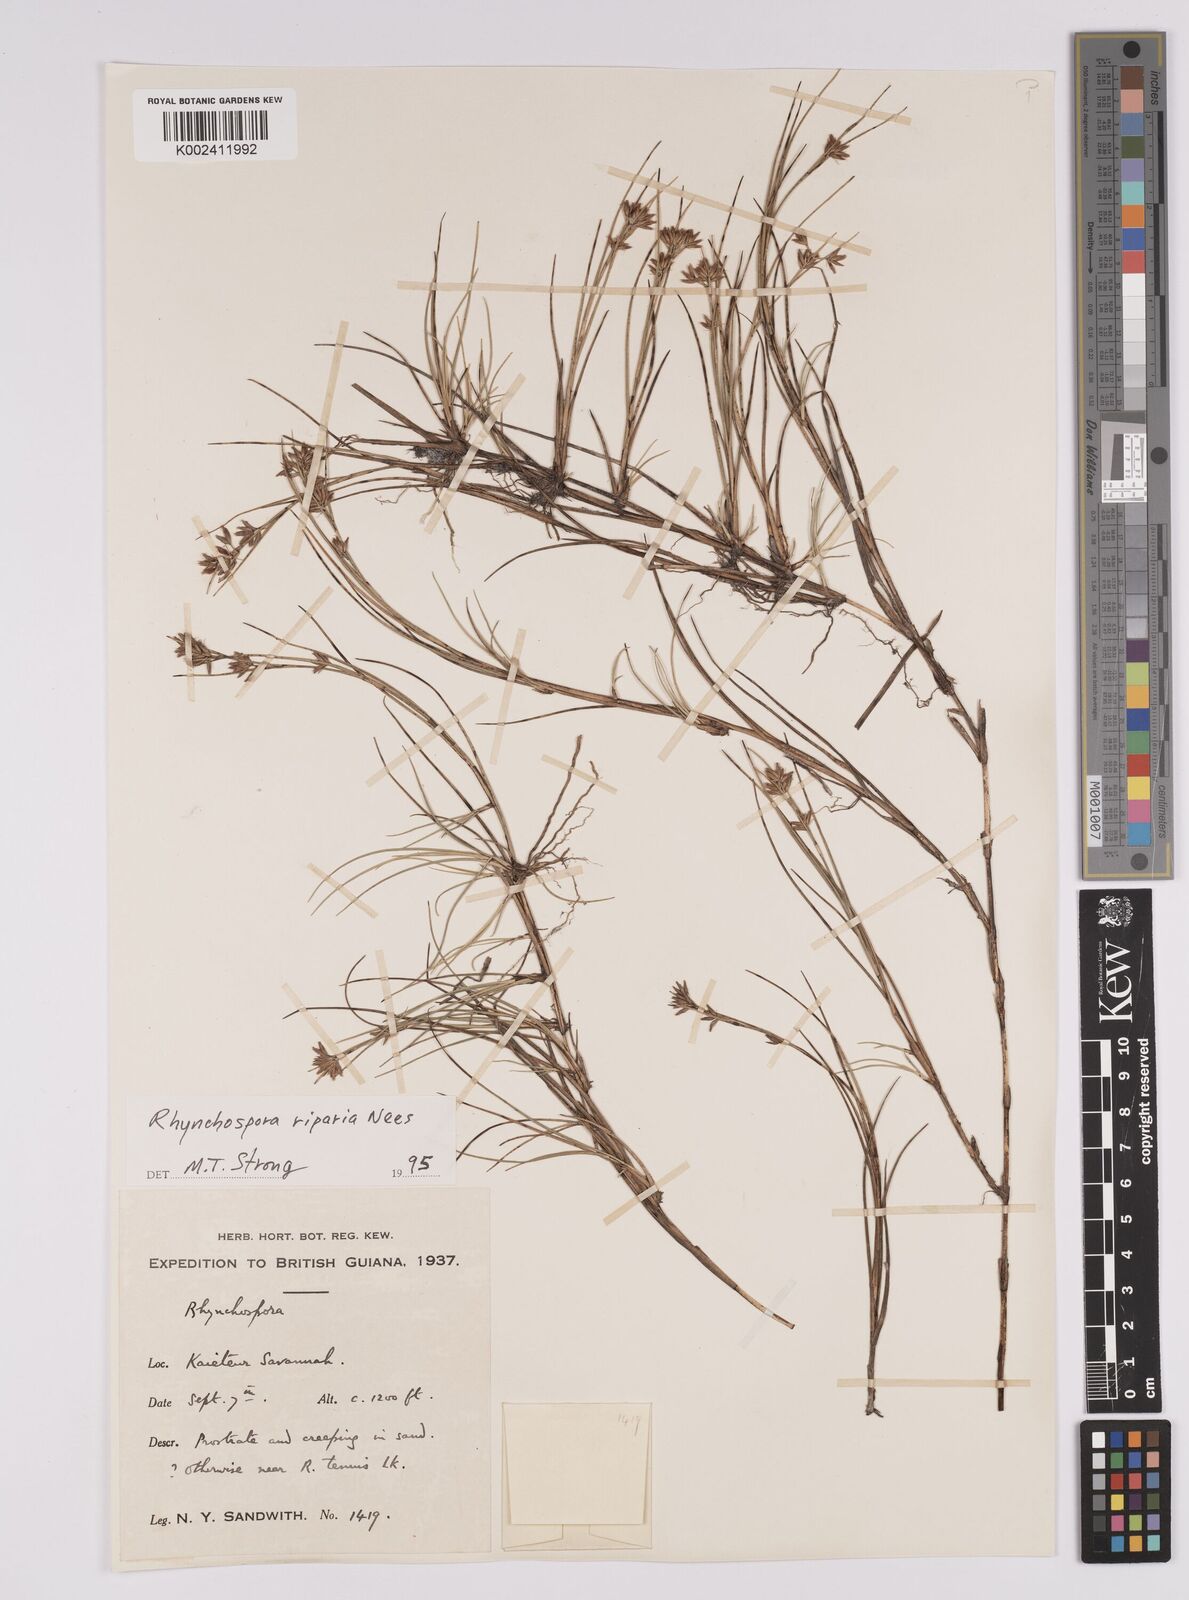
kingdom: Plantae
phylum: Tracheophyta
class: Liliopsida
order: Poales
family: Cyperaceae
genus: Rhynchospora
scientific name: Rhynchospora riparia
